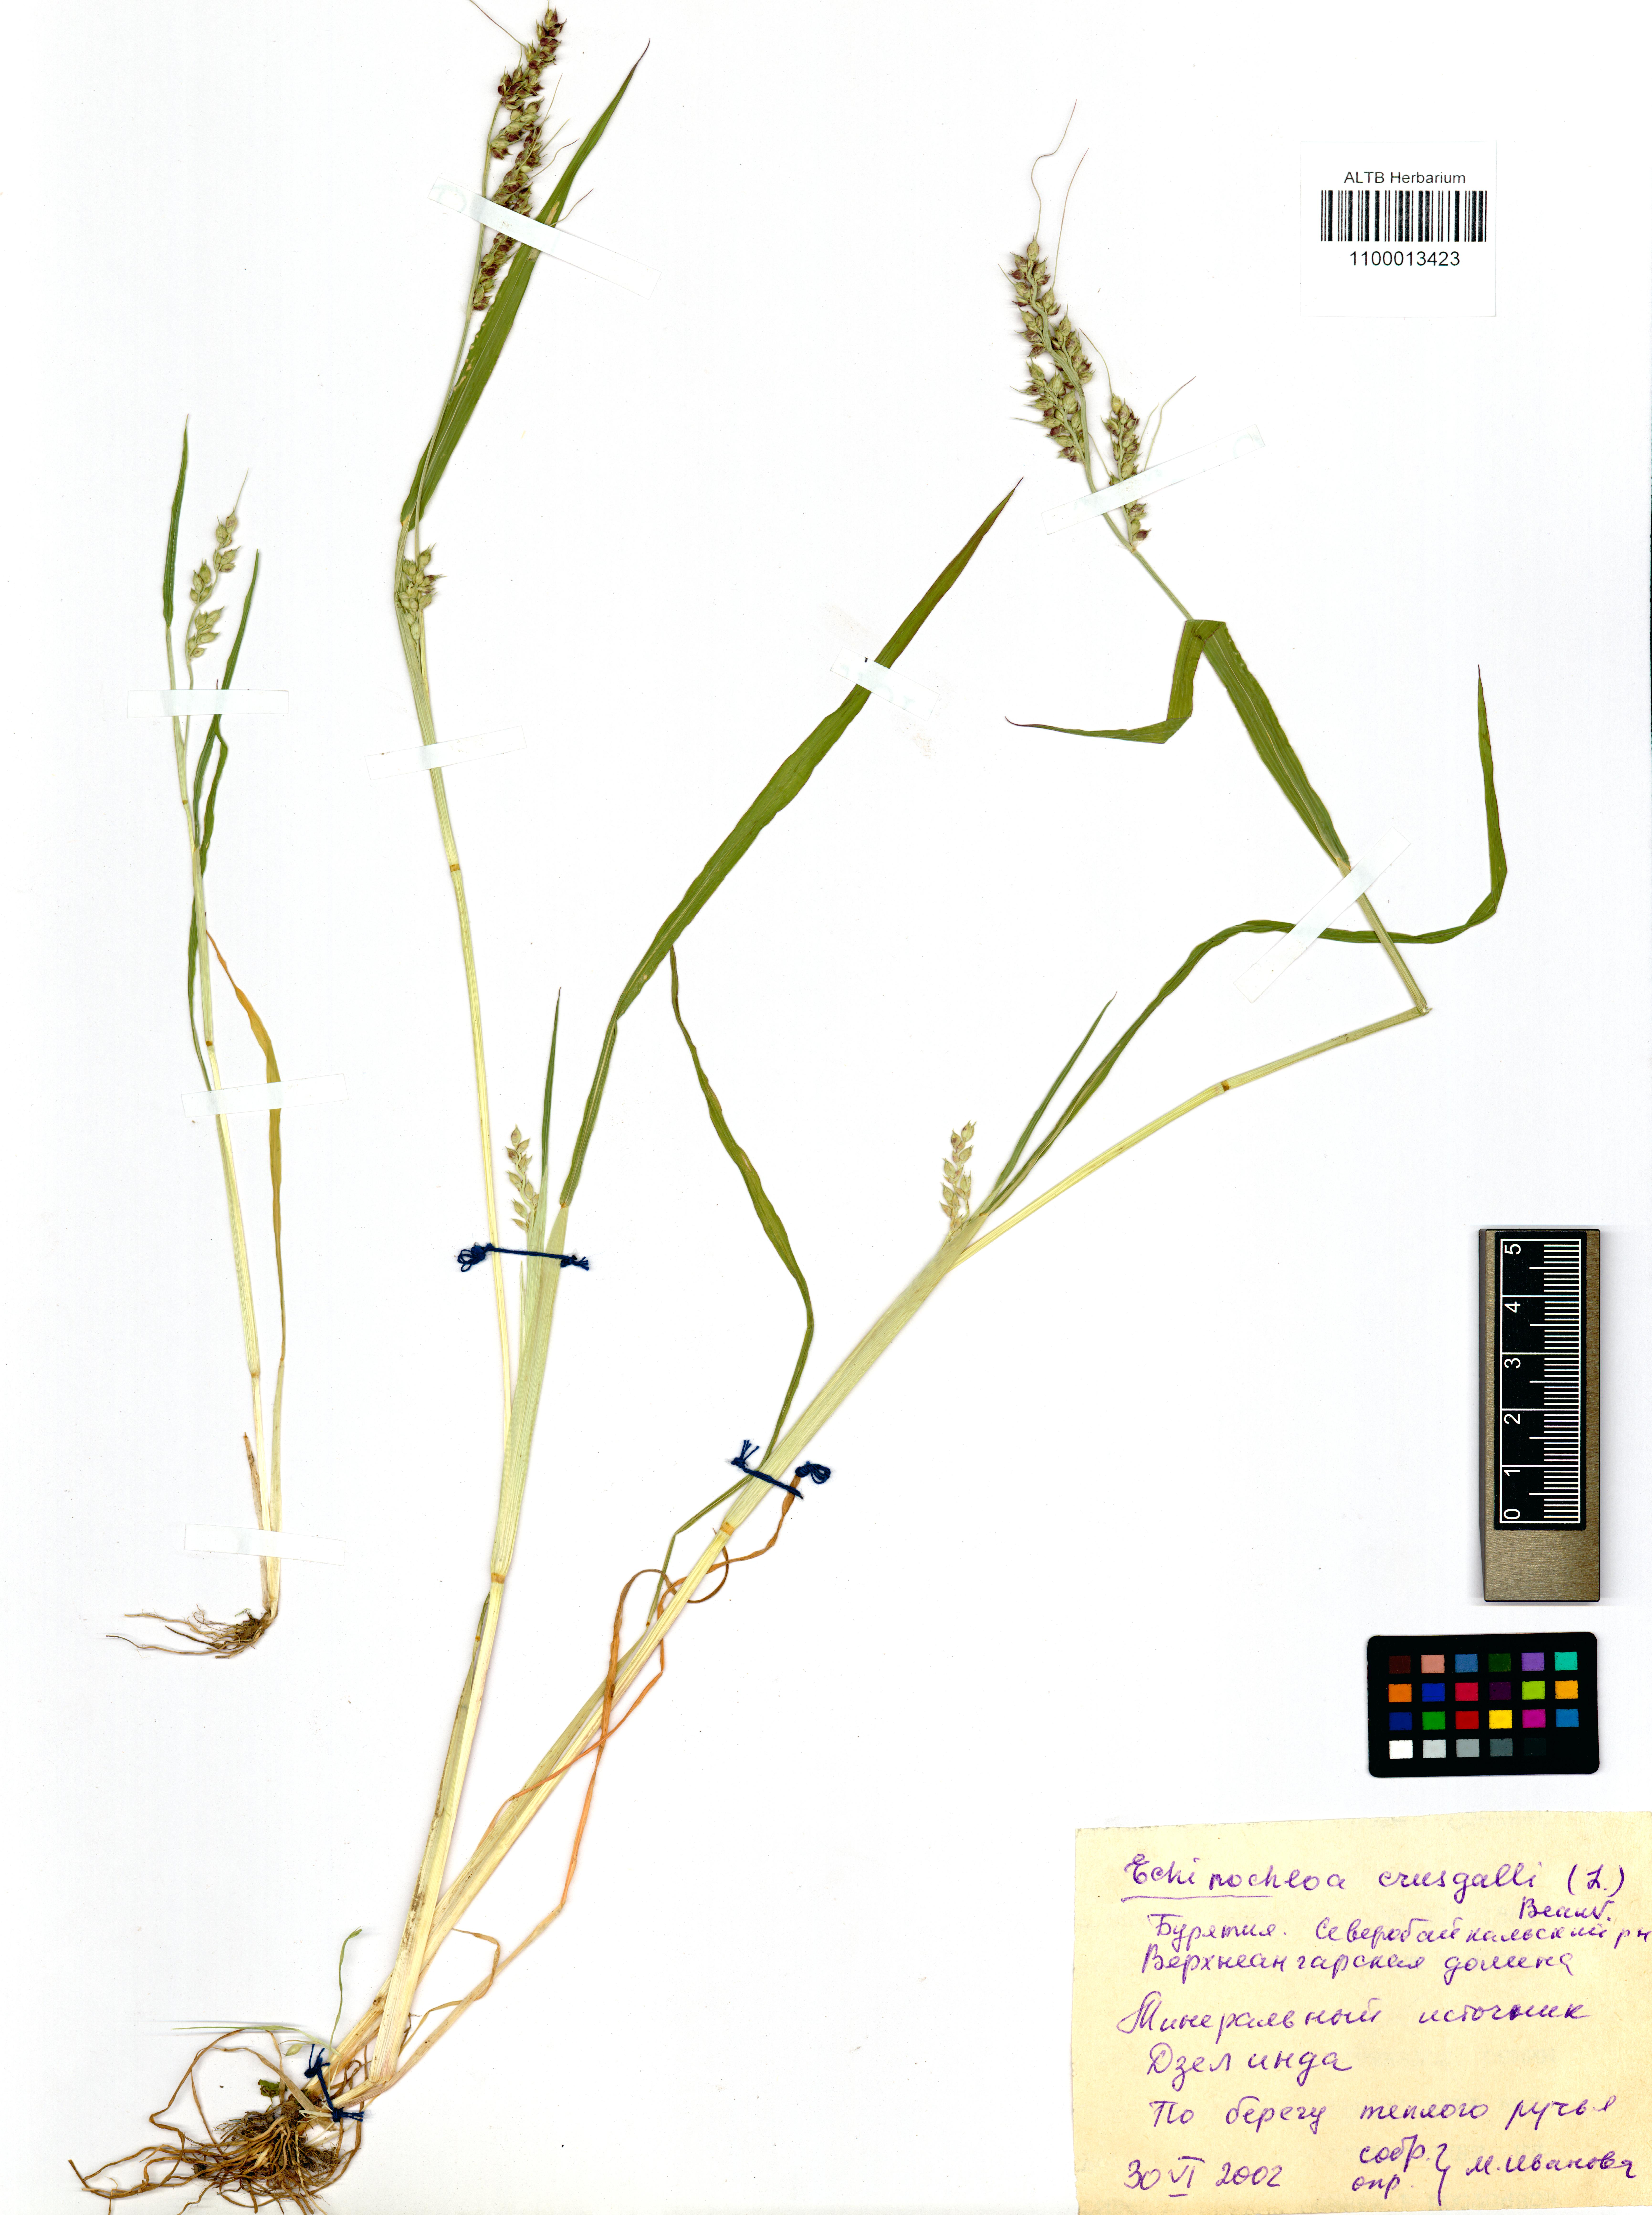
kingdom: Plantae
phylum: Tracheophyta
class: Liliopsida
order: Poales
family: Poaceae
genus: Echinochloa
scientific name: Echinochloa crus-galli
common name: Cockspur
